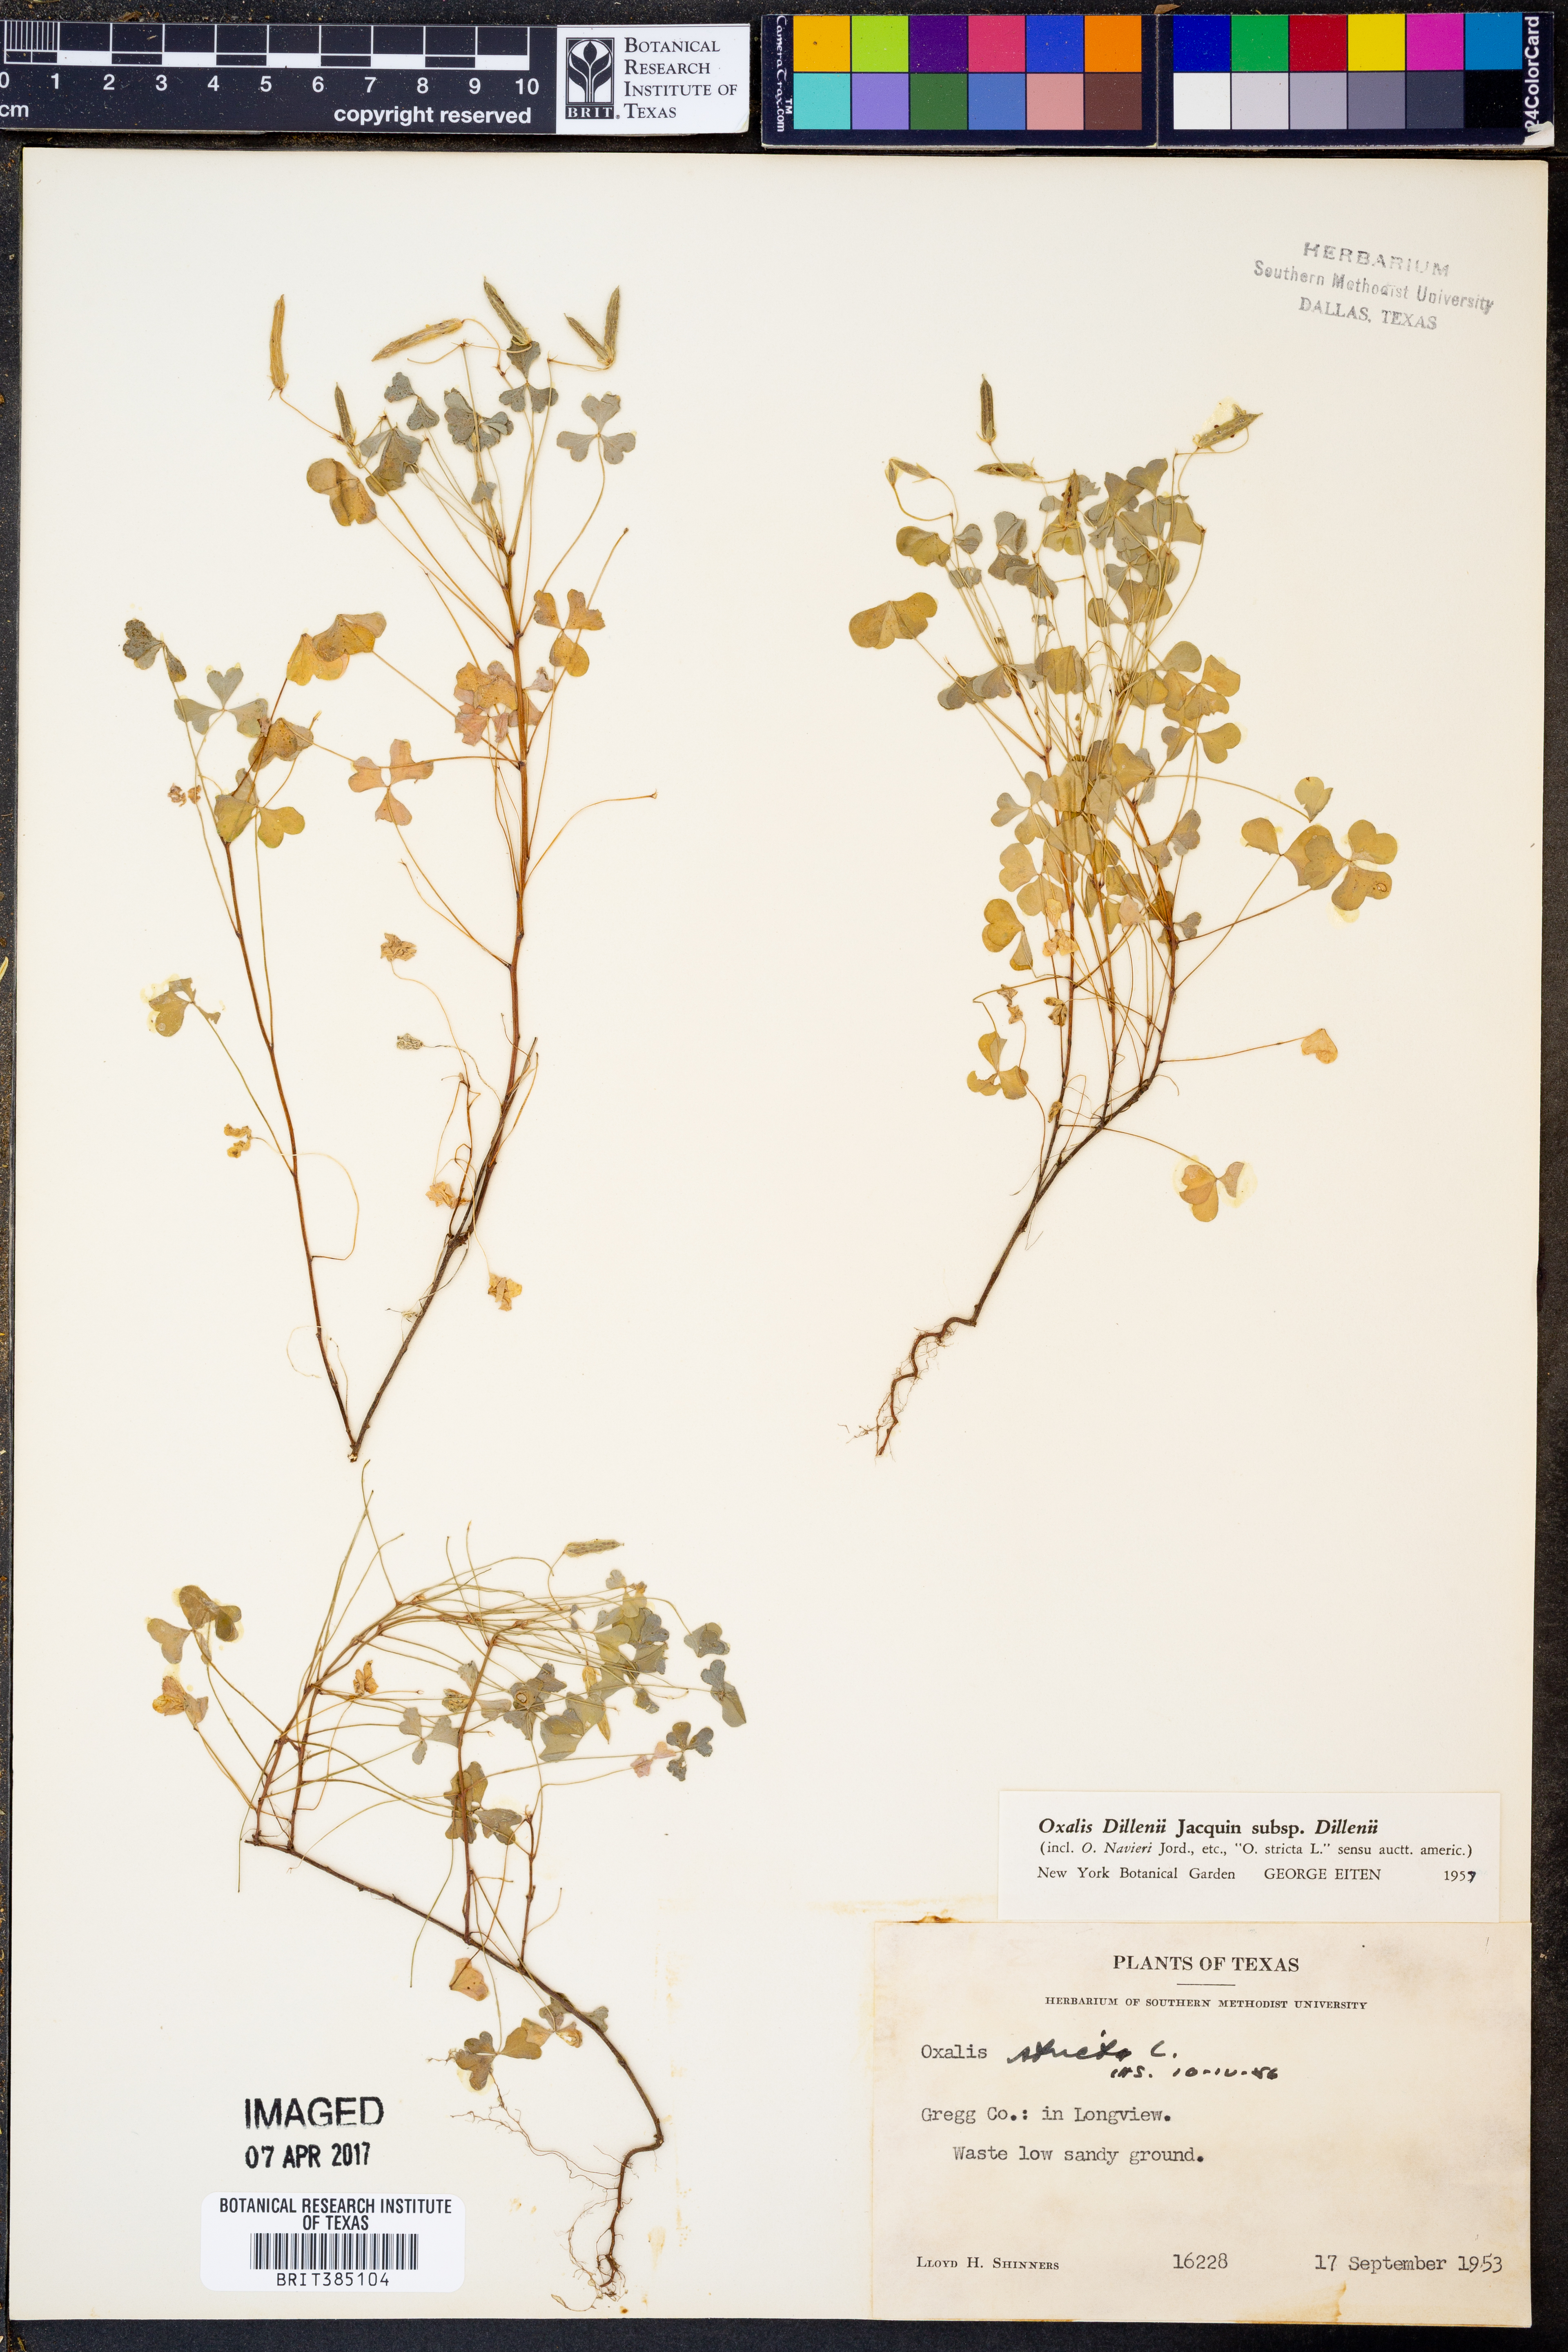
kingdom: Plantae
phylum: Tracheophyta
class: Magnoliopsida
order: Oxalidales
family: Oxalidaceae
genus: Oxalis
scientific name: Oxalis dillenii
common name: Sussex yellow-sorrel
